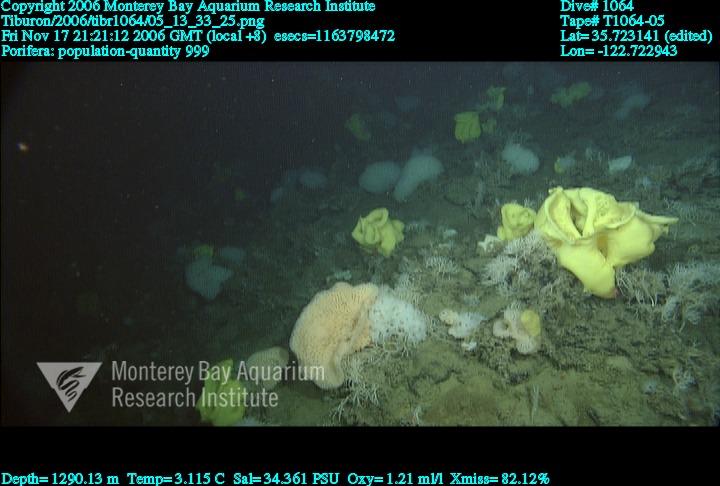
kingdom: Animalia
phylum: Porifera
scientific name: Porifera
